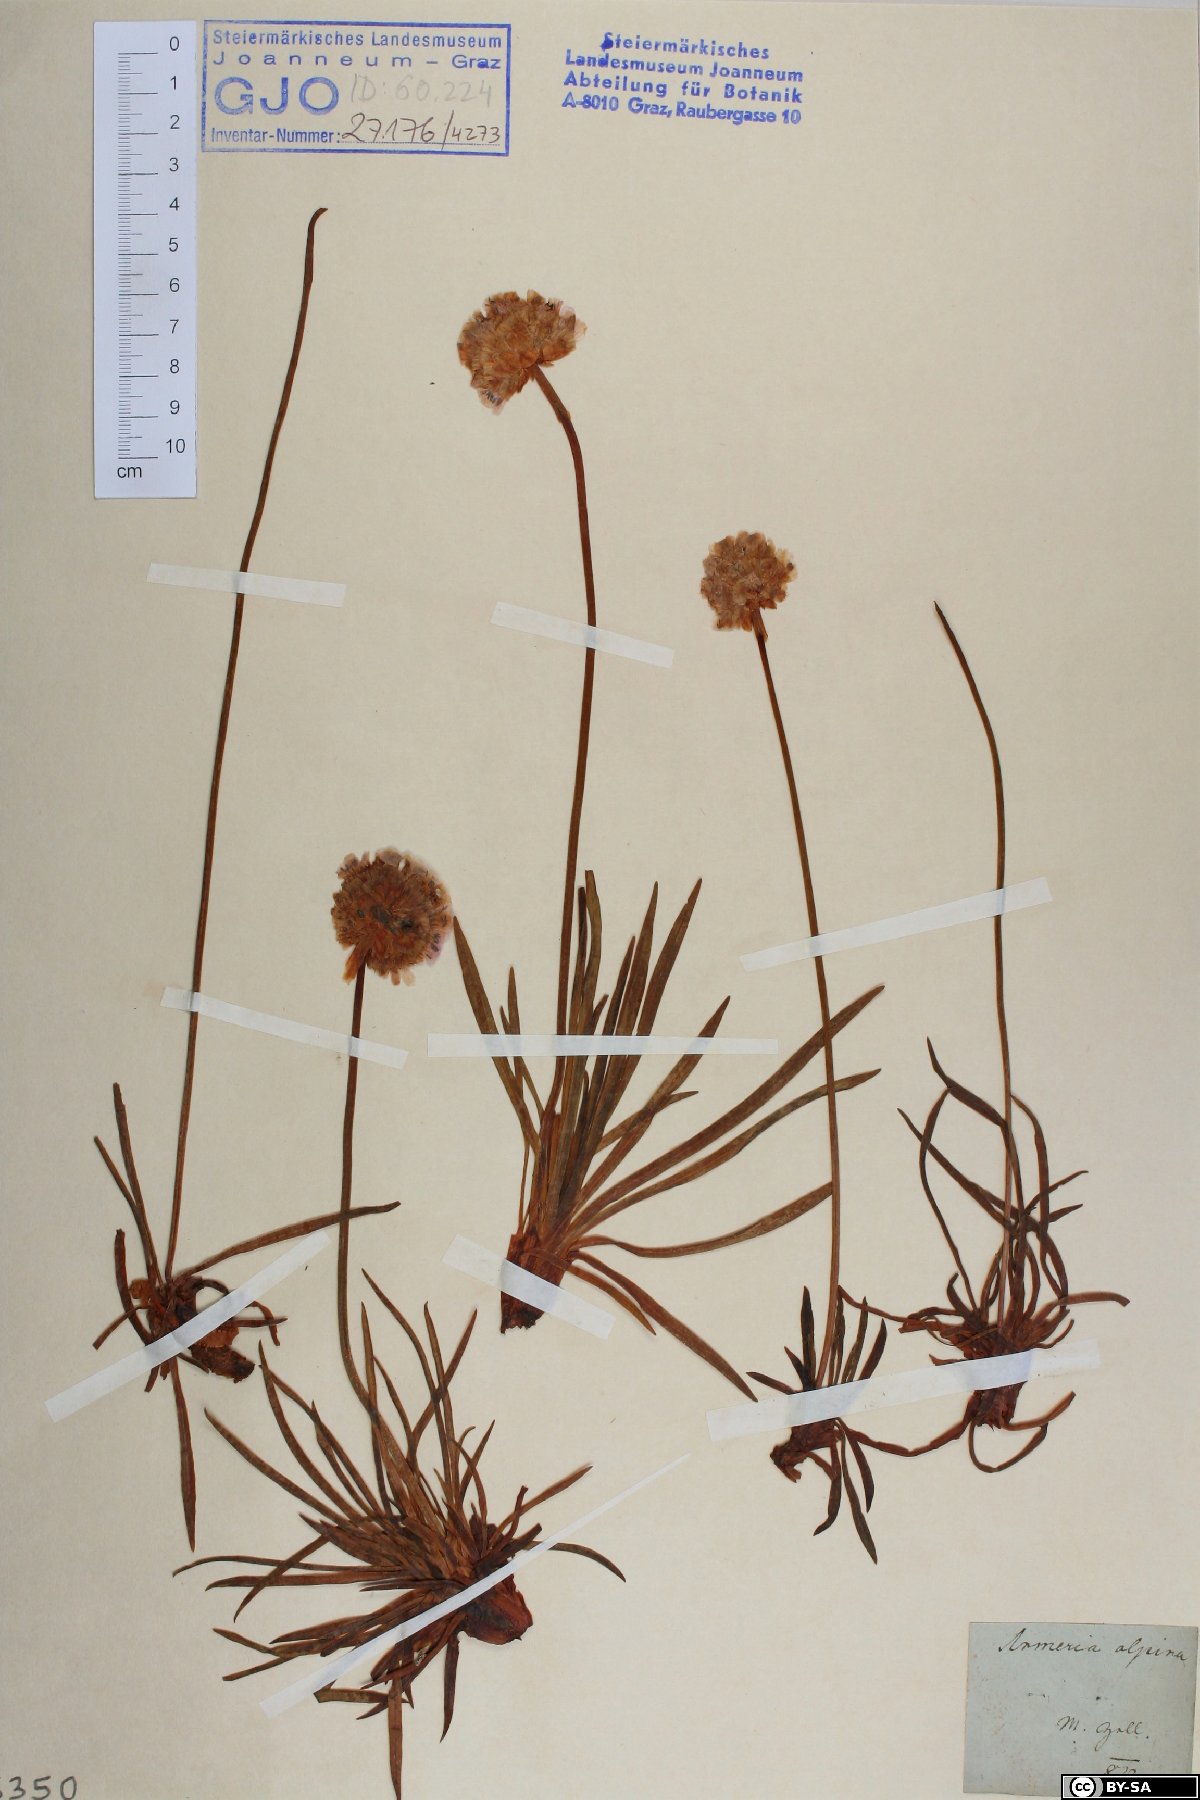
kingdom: Plantae
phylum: Tracheophyta
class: Magnoliopsida
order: Caryophyllales
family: Plumbaginaceae
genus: Armeria
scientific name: Armeria alpina
